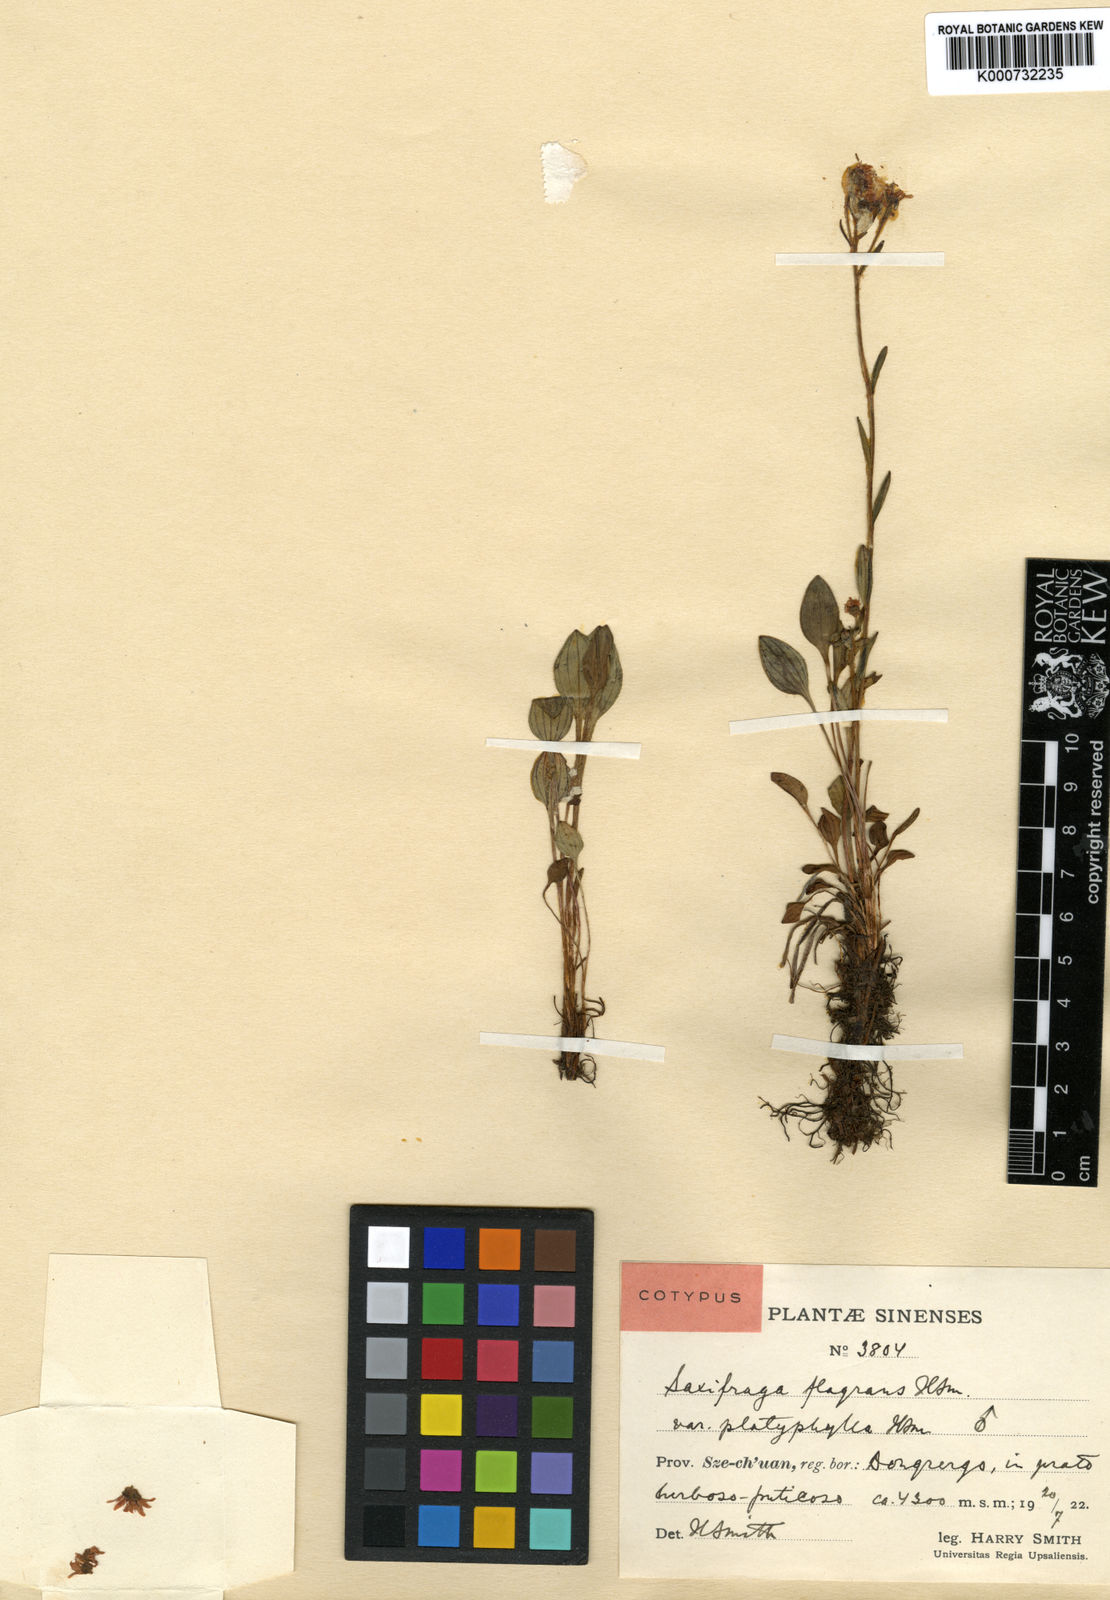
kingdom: Plantae
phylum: Tracheophyta
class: Magnoliopsida
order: Saxifragales
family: Saxifragaceae
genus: Saxifraga
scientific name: Saxifraga imparilis
